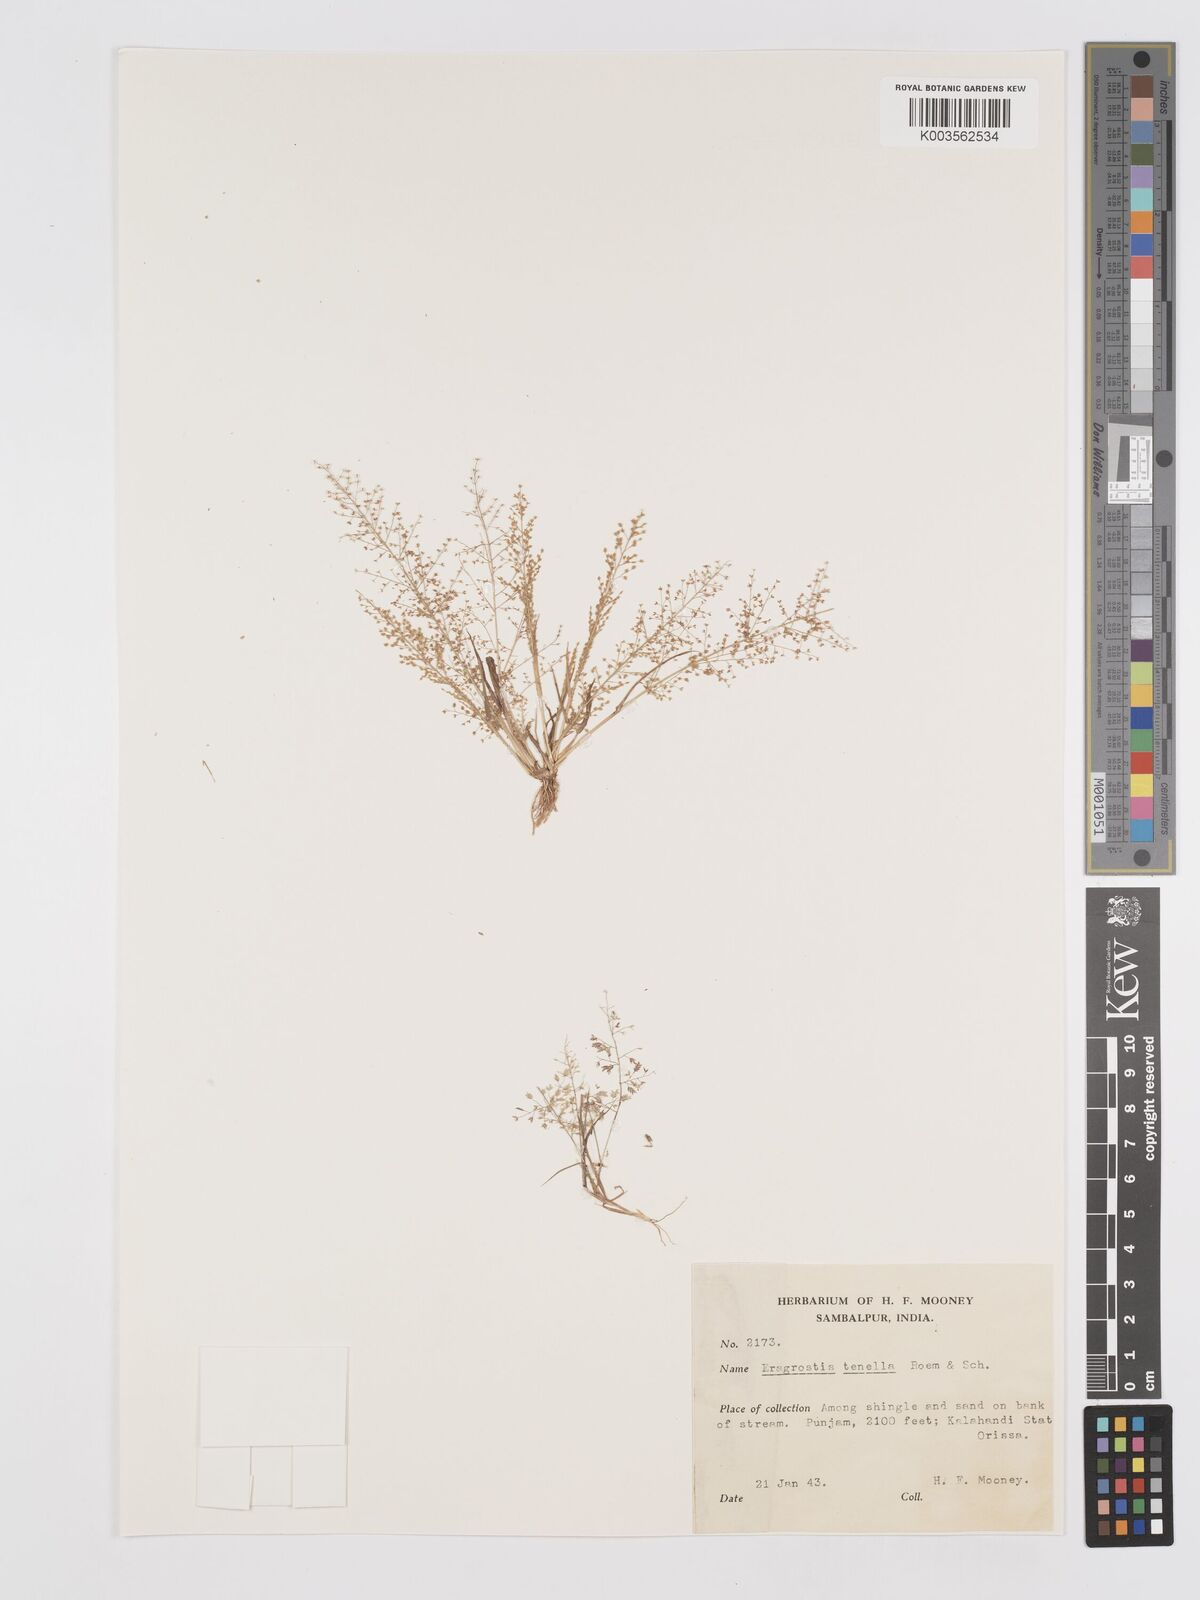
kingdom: Plantae
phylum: Tracheophyta
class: Liliopsida
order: Poales
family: Poaceae
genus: Eragrostis
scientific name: Eragrostis tenella
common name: Japanese lovegrass
